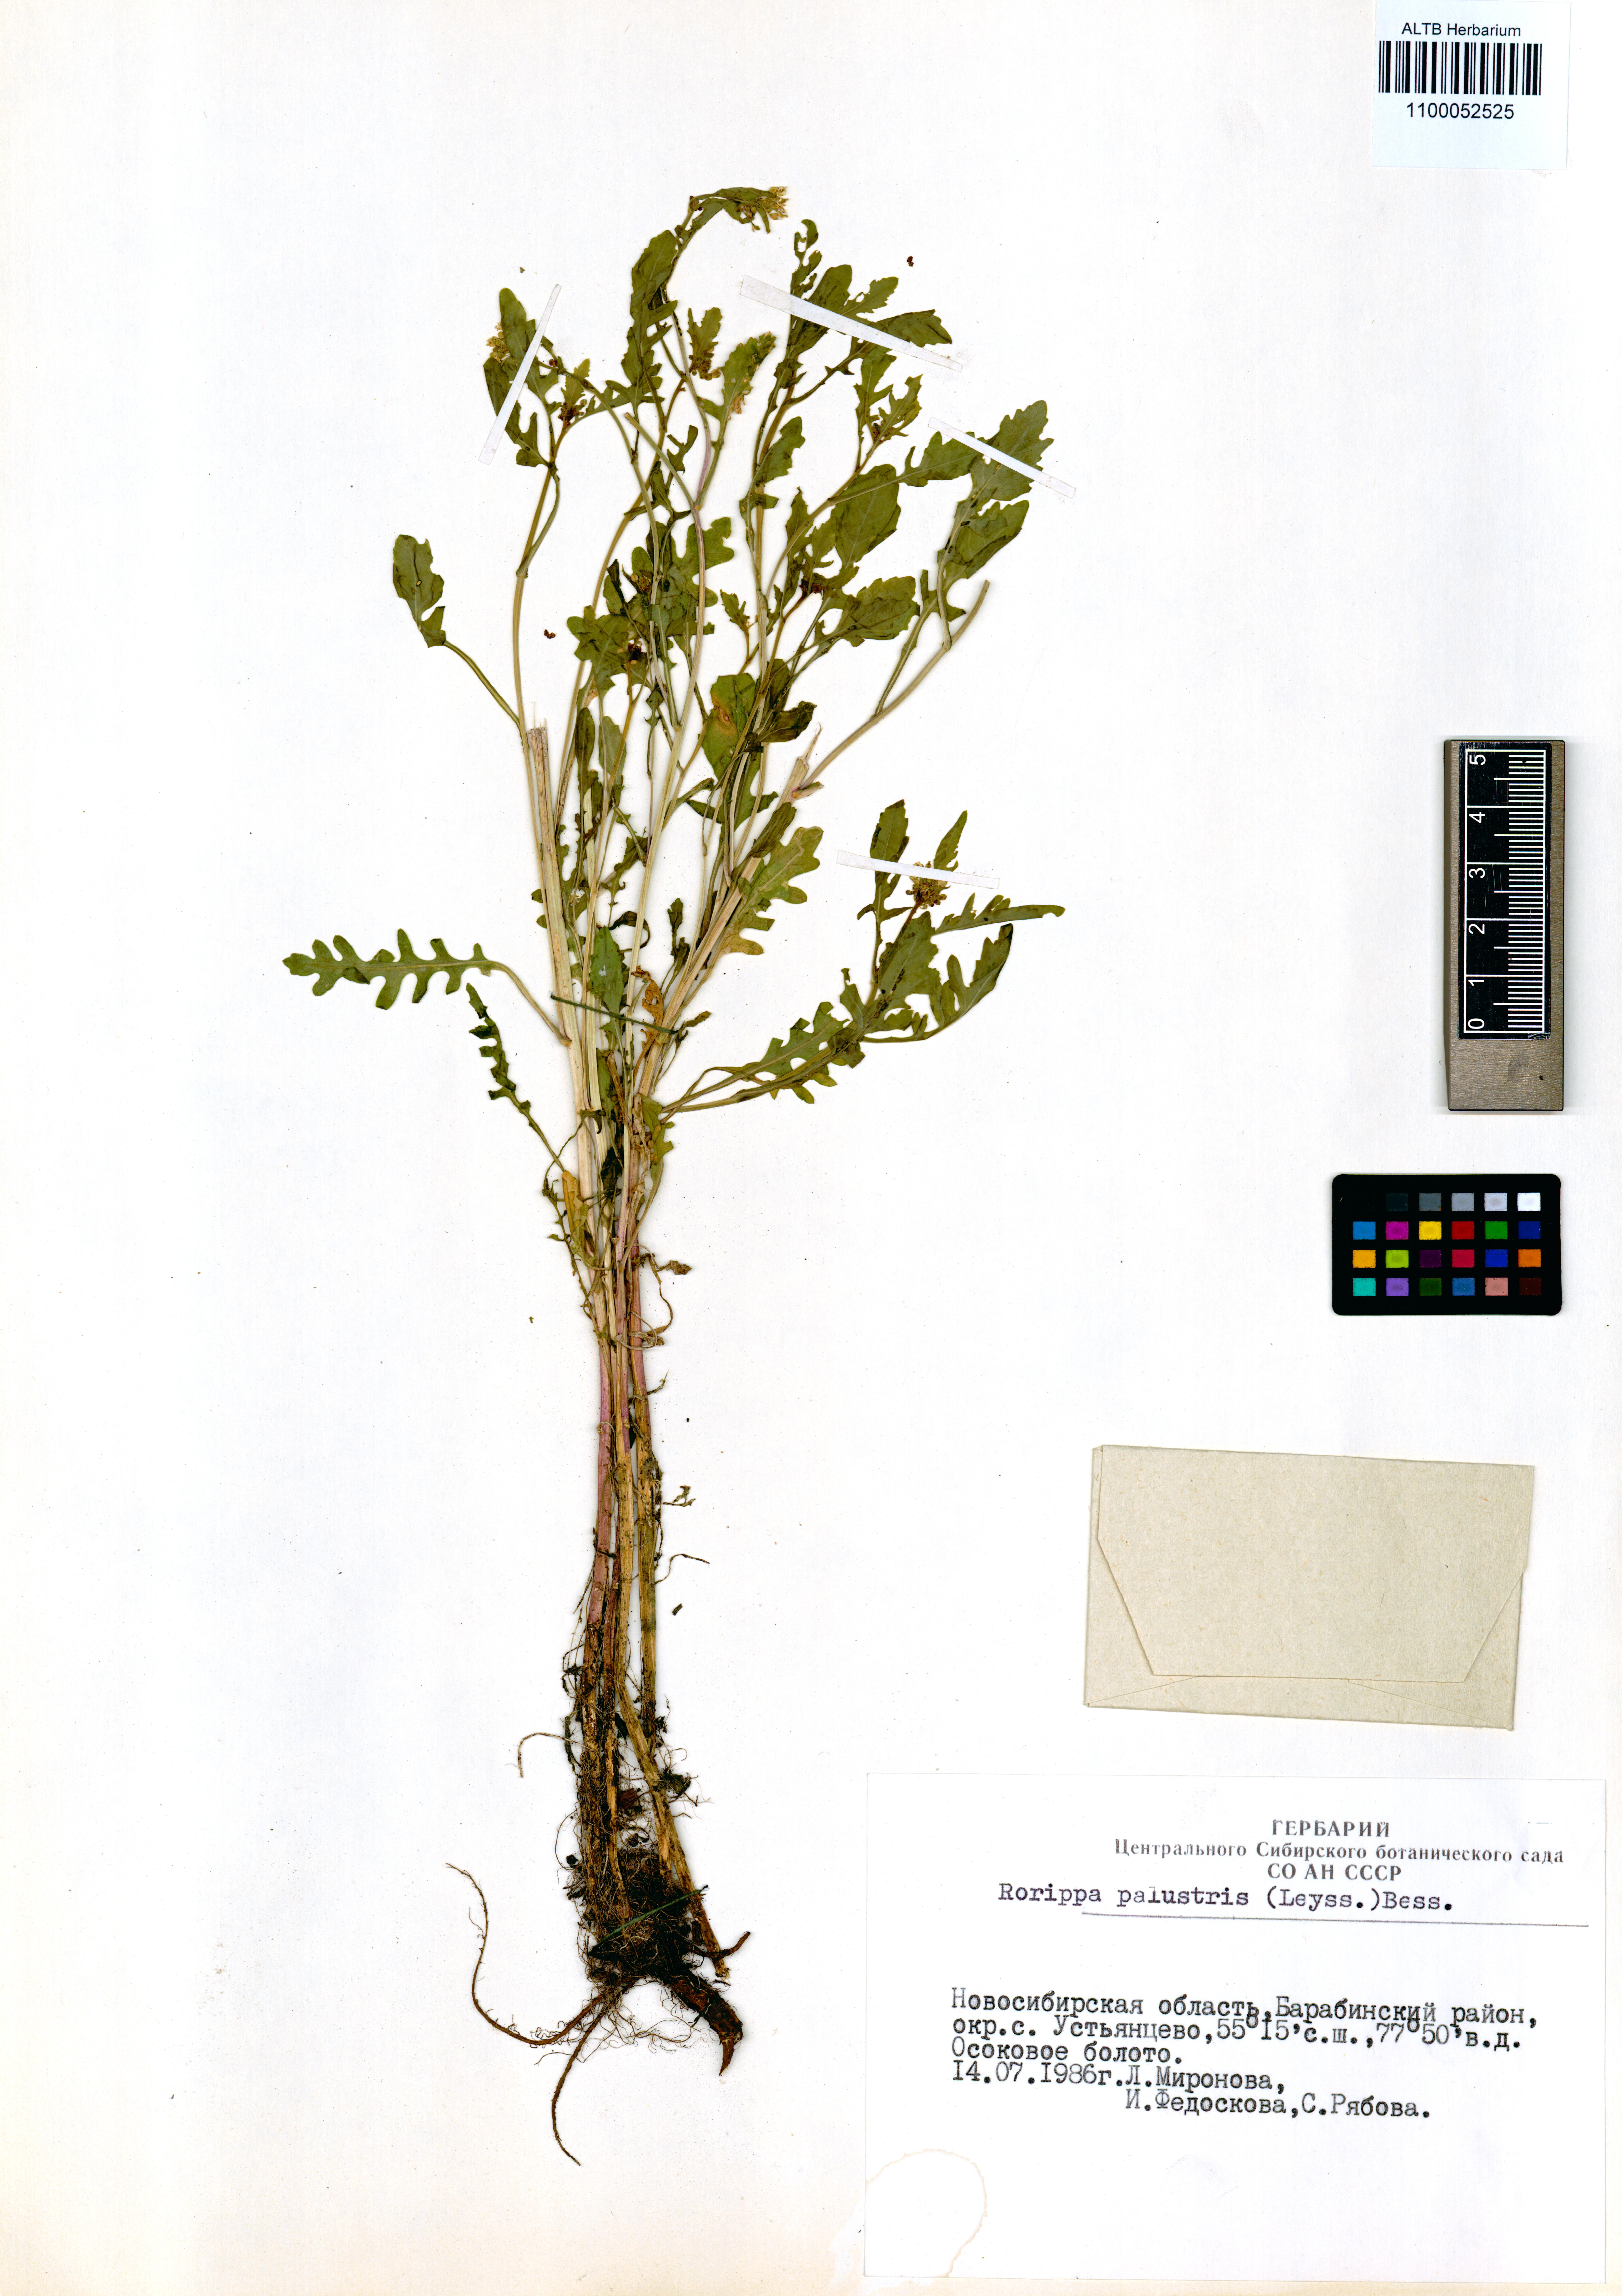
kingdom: Plantae
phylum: Tracheophyta
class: Magnoliopsida
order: Brassicales
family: Brassicaceae
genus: Rorippa
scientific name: Rorippa palustris
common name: Marsh yellow-cress
